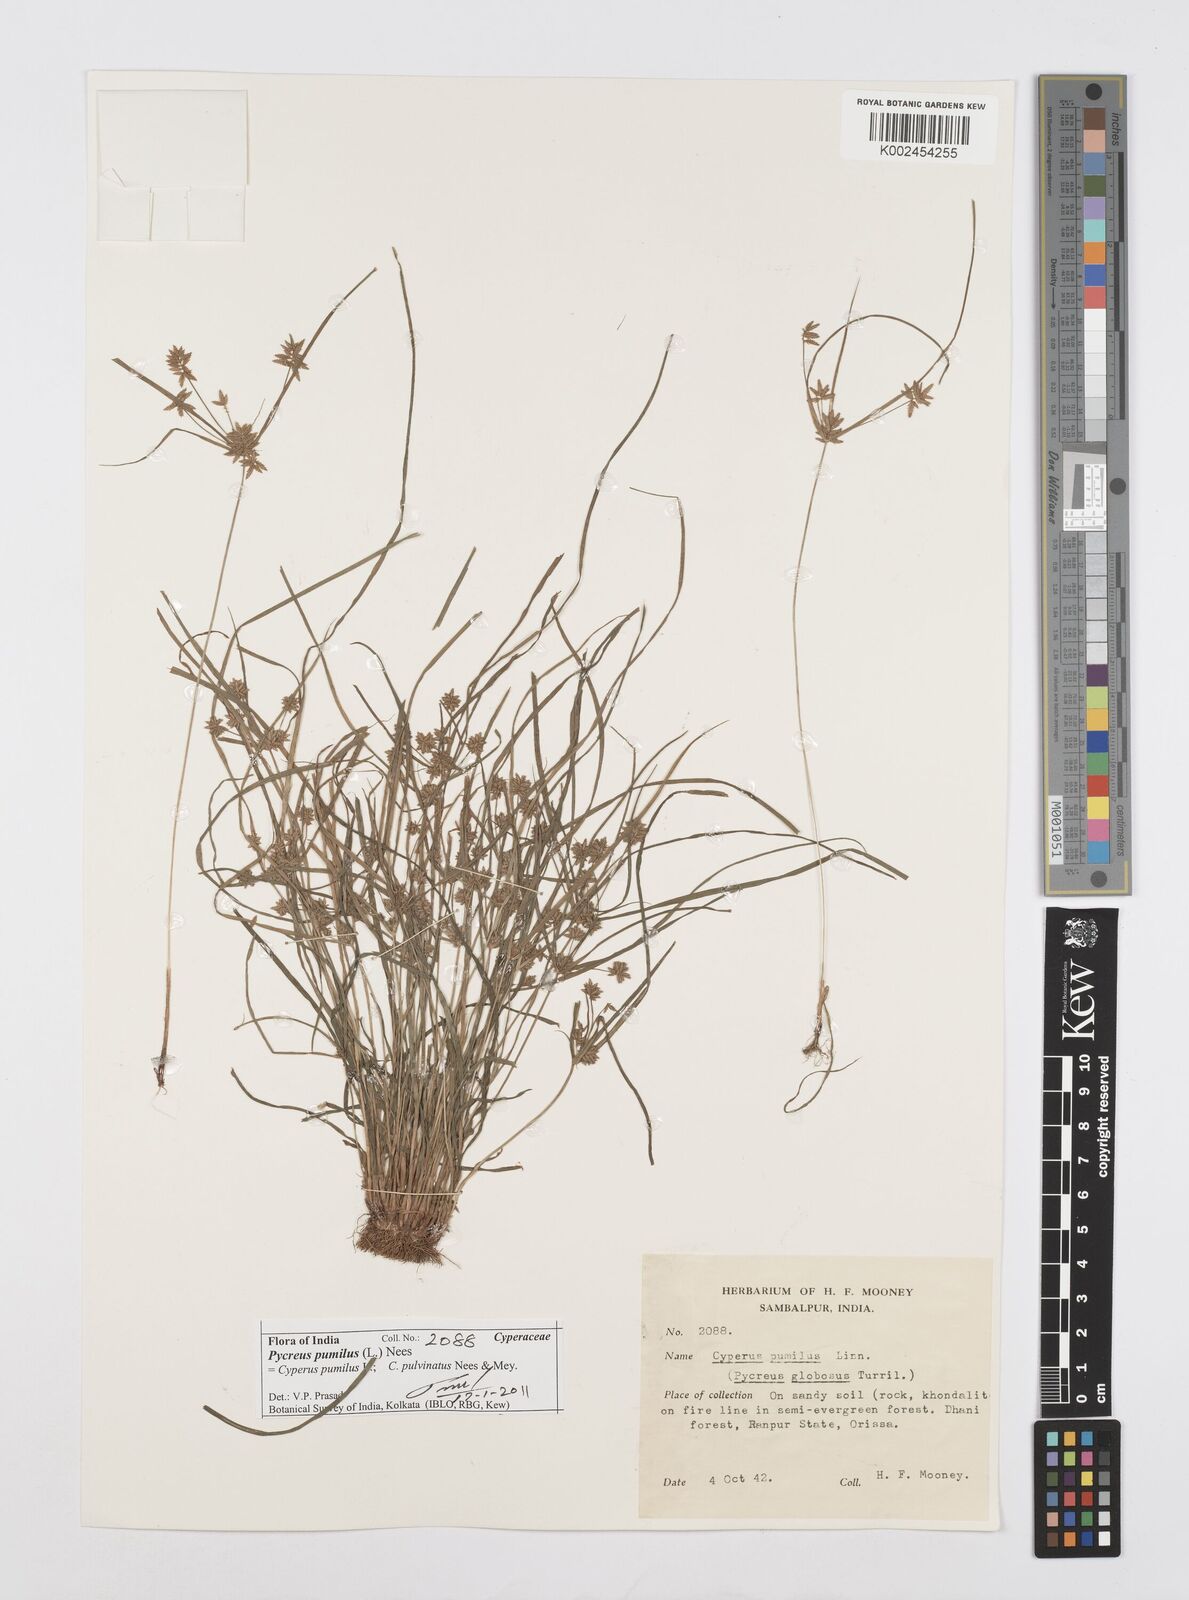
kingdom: Plantae
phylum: Tracheophyta
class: Liliopsida
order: Poales
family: Cyperaceae
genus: Cyperus
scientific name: Cyperus pumilus
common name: Low flatsedge
